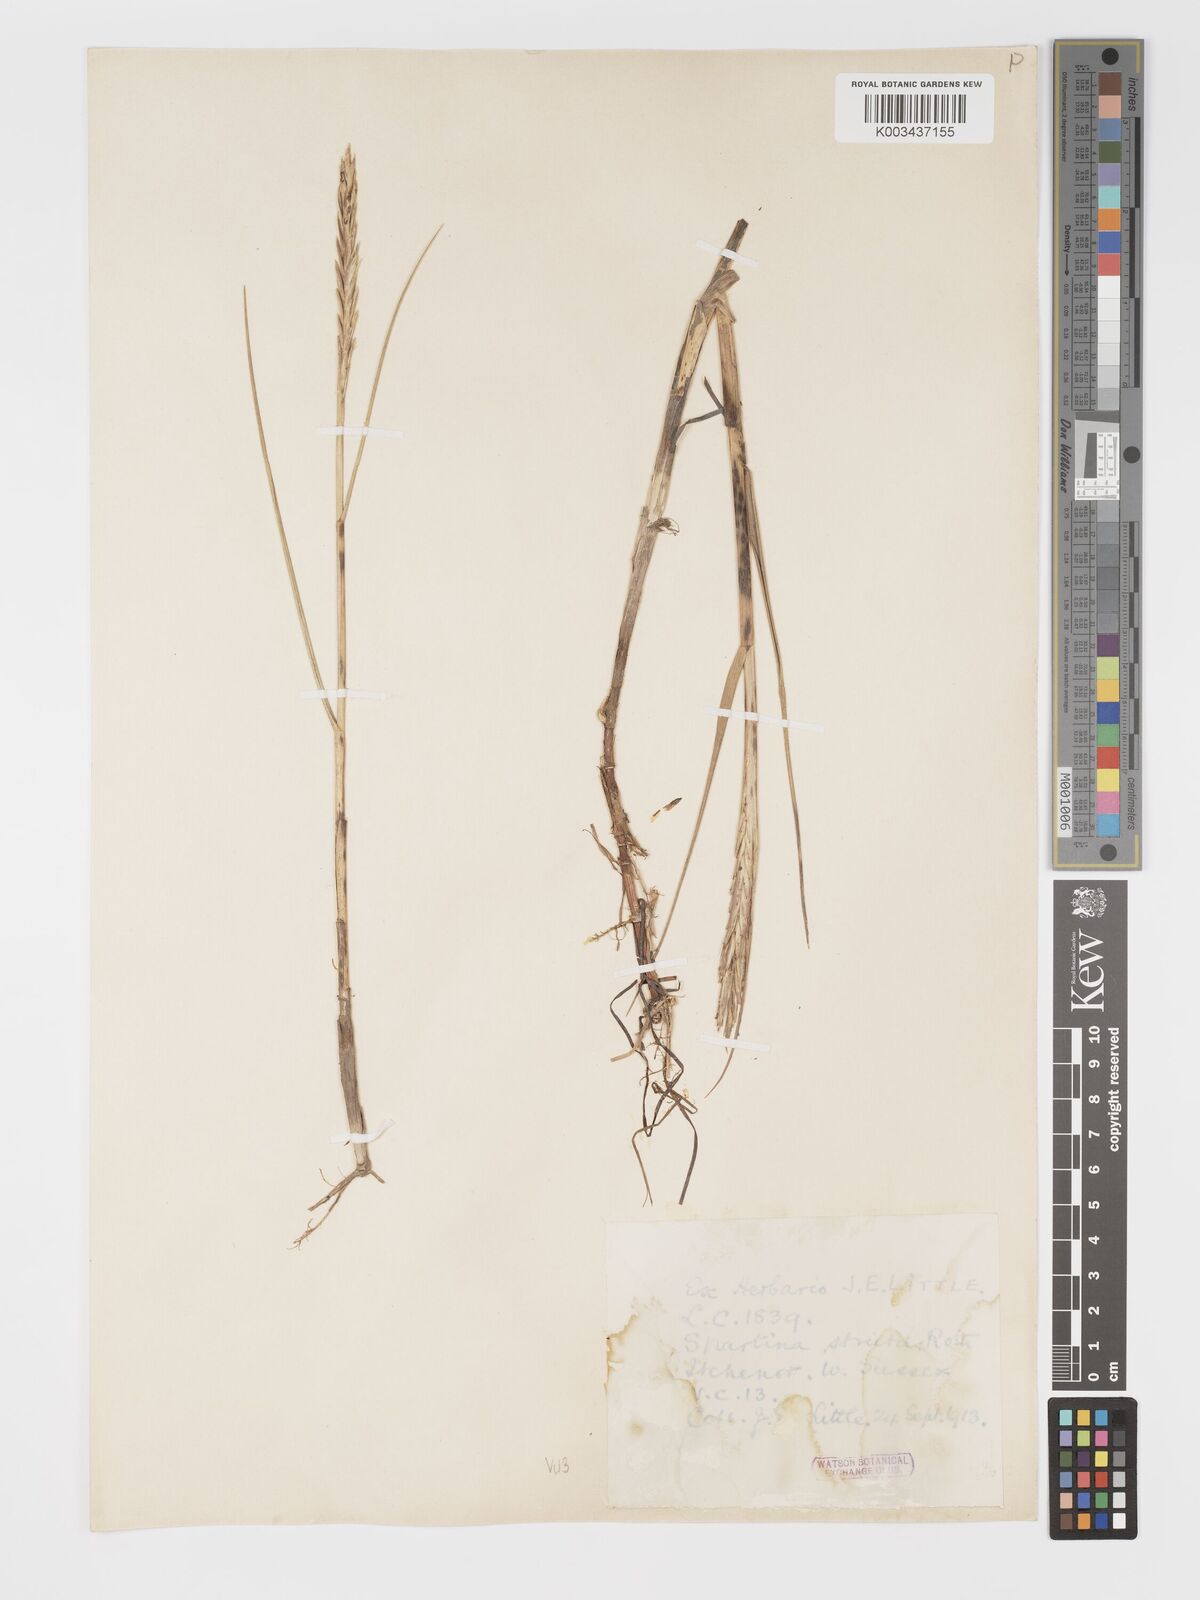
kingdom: Plantae
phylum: Tracheophyta
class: Liliopsida
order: Poales
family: Poaceae
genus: Sporobolus
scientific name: Sporobolus maritimus
